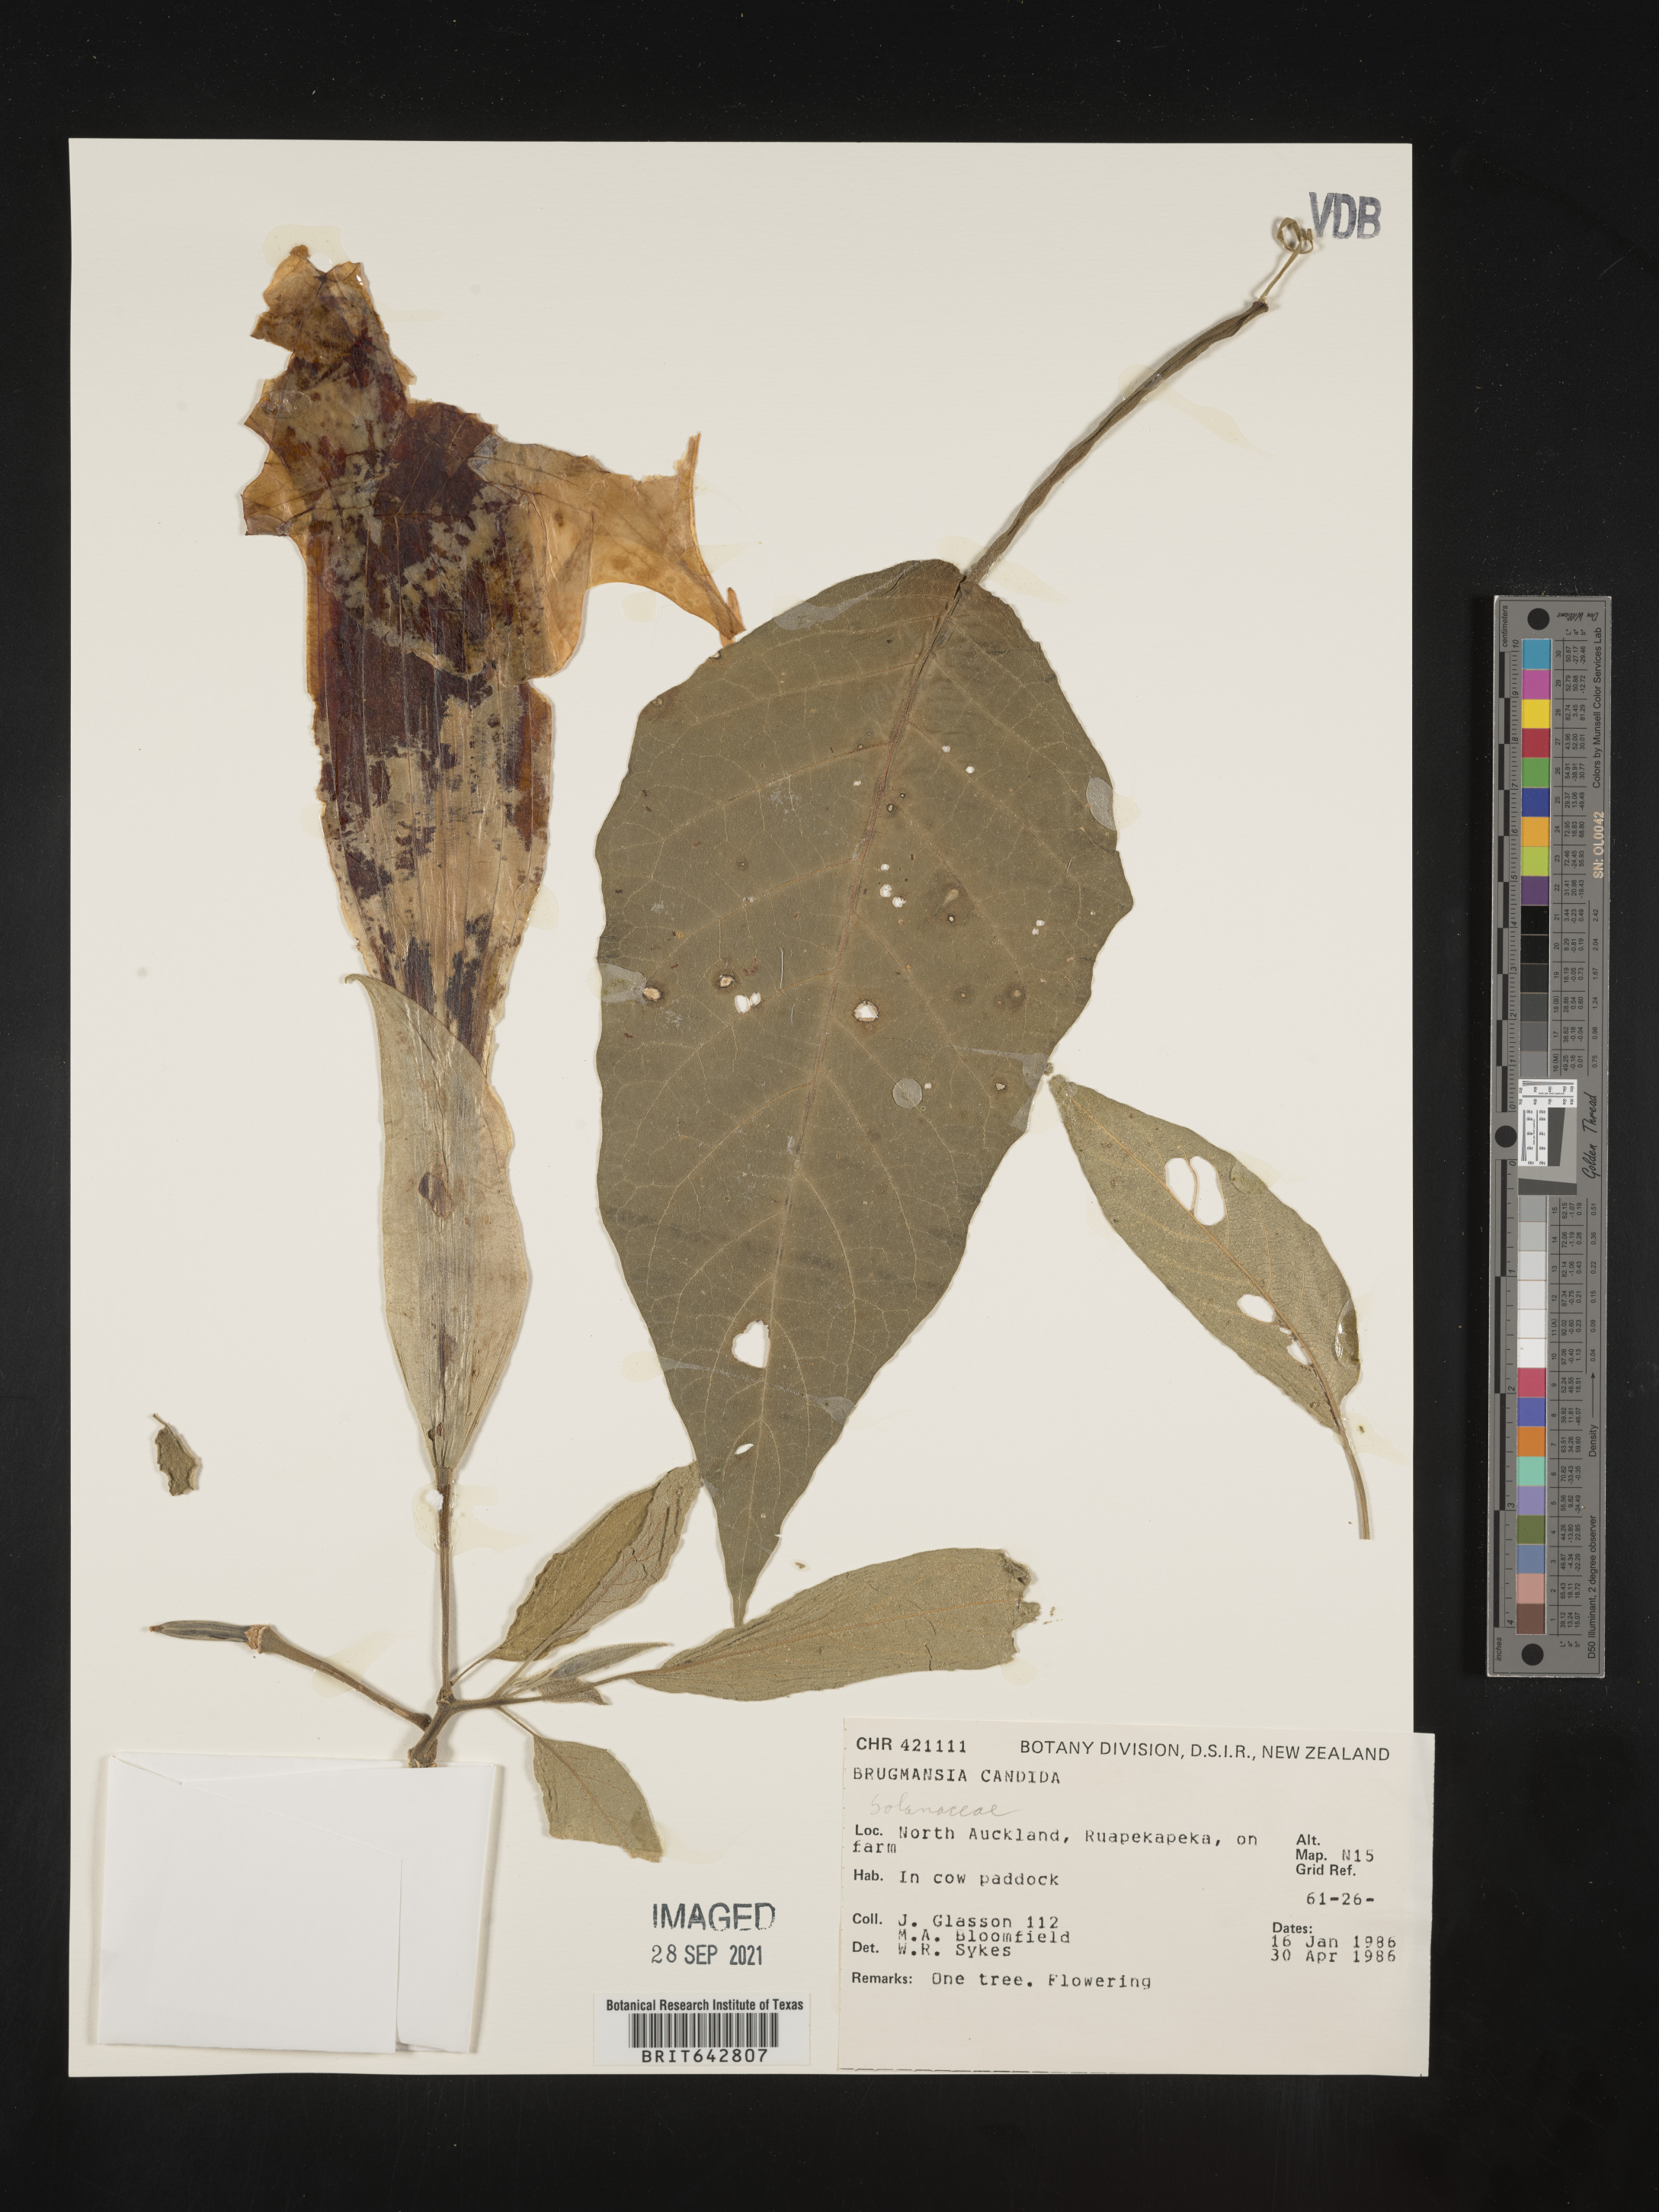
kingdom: Plantae
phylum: Tracheophyta
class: Magnoliopsida
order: Solanales
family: Solanaceae
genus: Brugmansia
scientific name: Brugmansia
